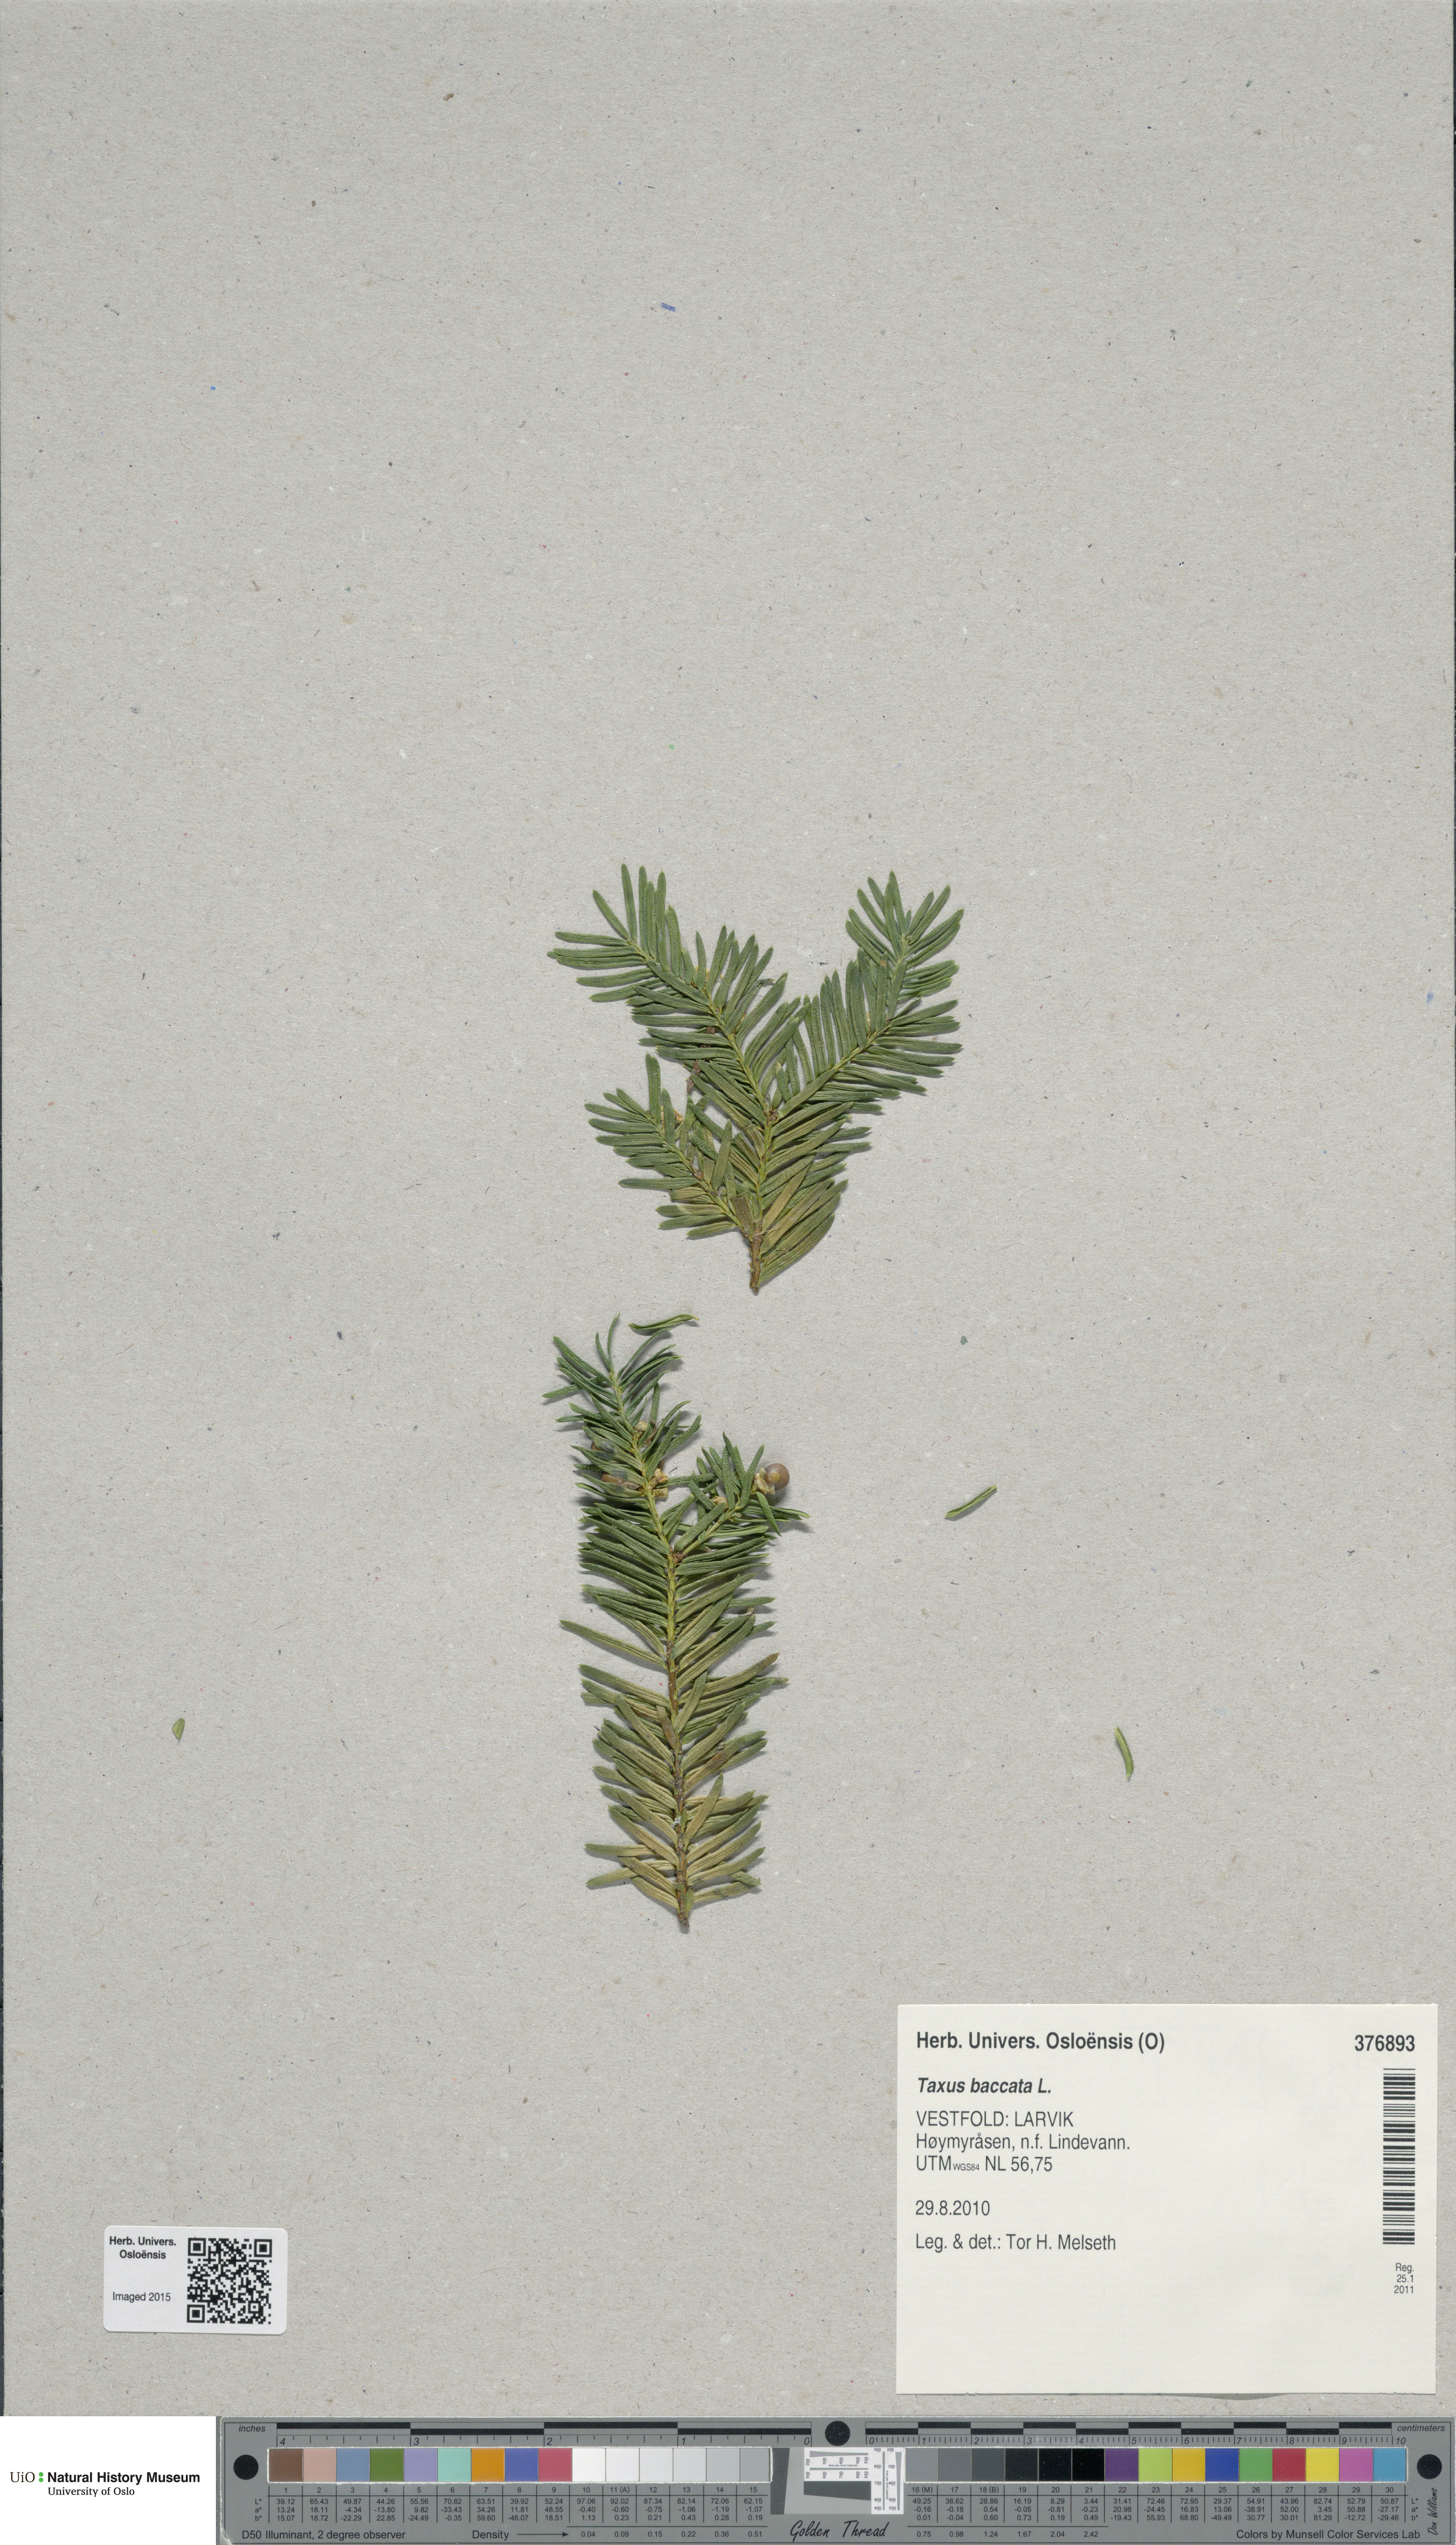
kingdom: Plantae
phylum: Tracheophyta
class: Pinopsida
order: Pinales
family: Taxaceae
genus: Taxus
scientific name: Taxus baccata
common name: Yew
